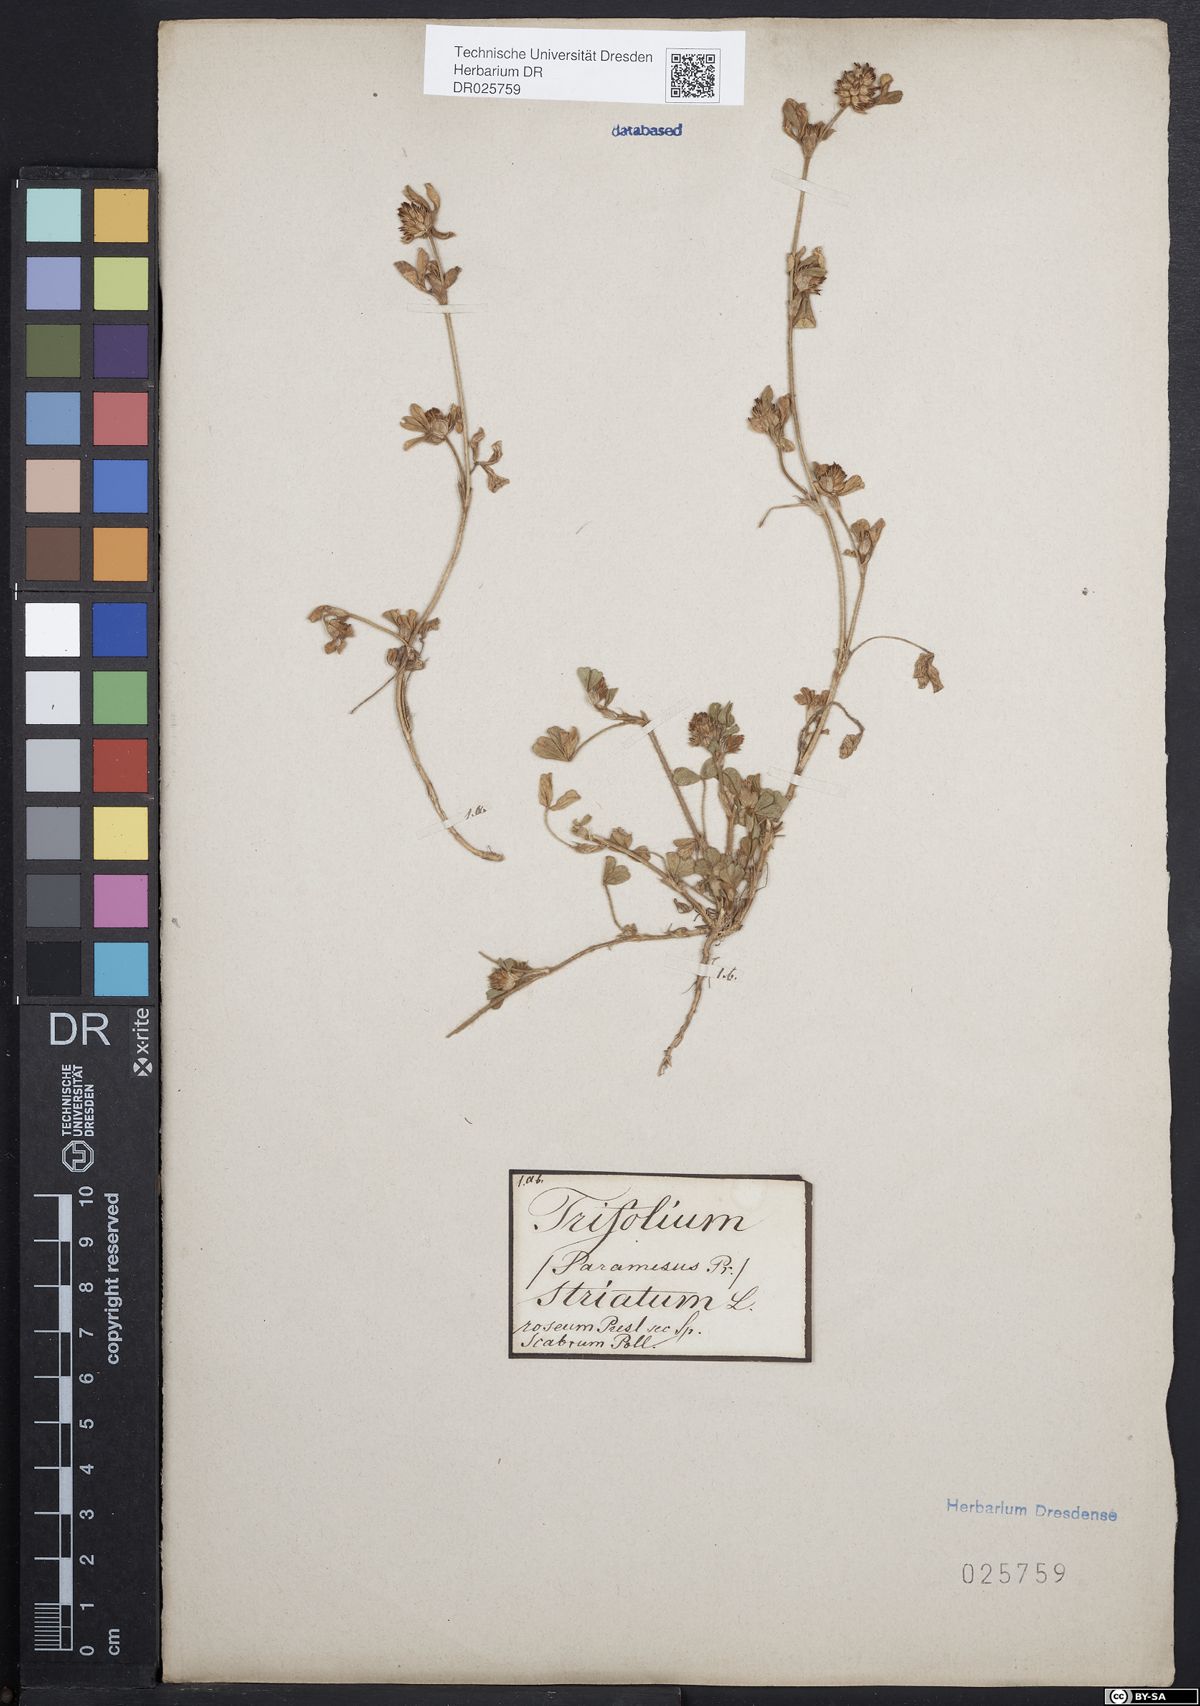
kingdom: Plantae
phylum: Tracheophyta
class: Magnoliopsida
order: Fabales
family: Fabaceae
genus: Trifolium
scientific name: Trifolium striatum
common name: Knotted clover
